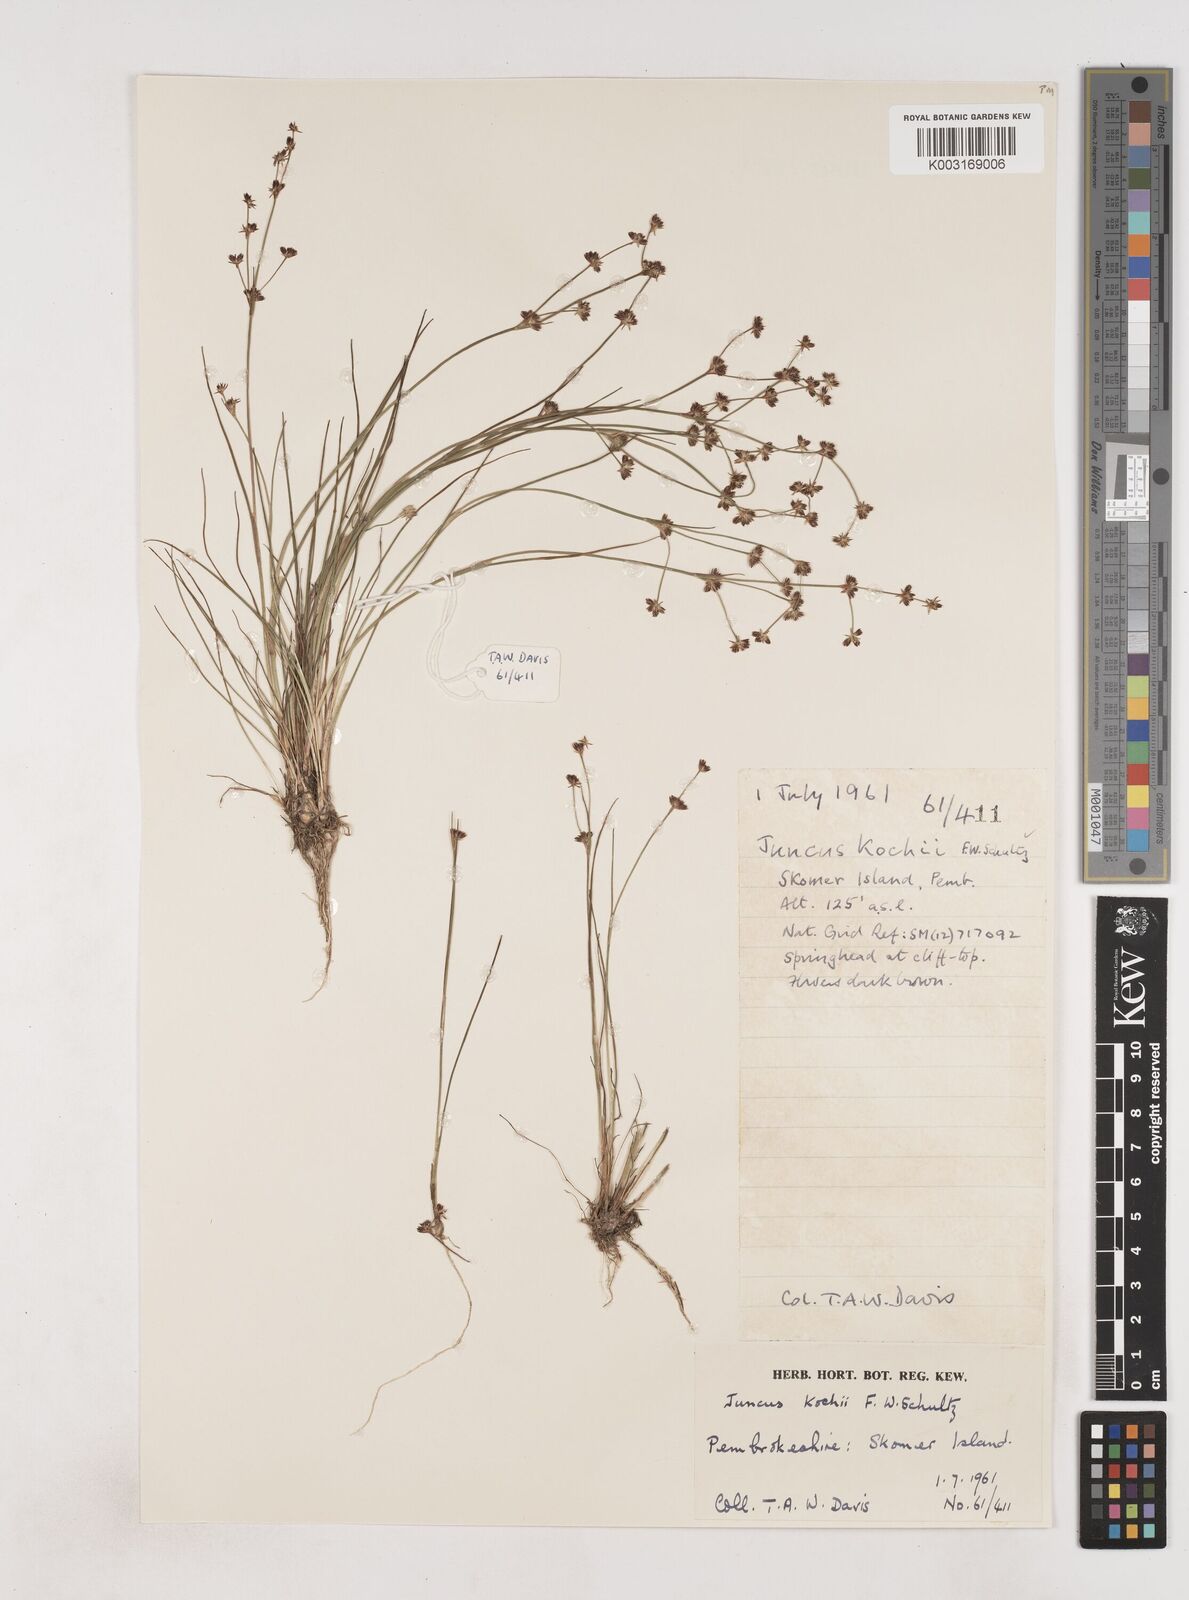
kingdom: Plantae
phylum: Tracheophyta
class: Liliopsida
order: Poales
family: Juncaceae
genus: Juncus
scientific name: Juncus bulbosus
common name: Bulbous rush
